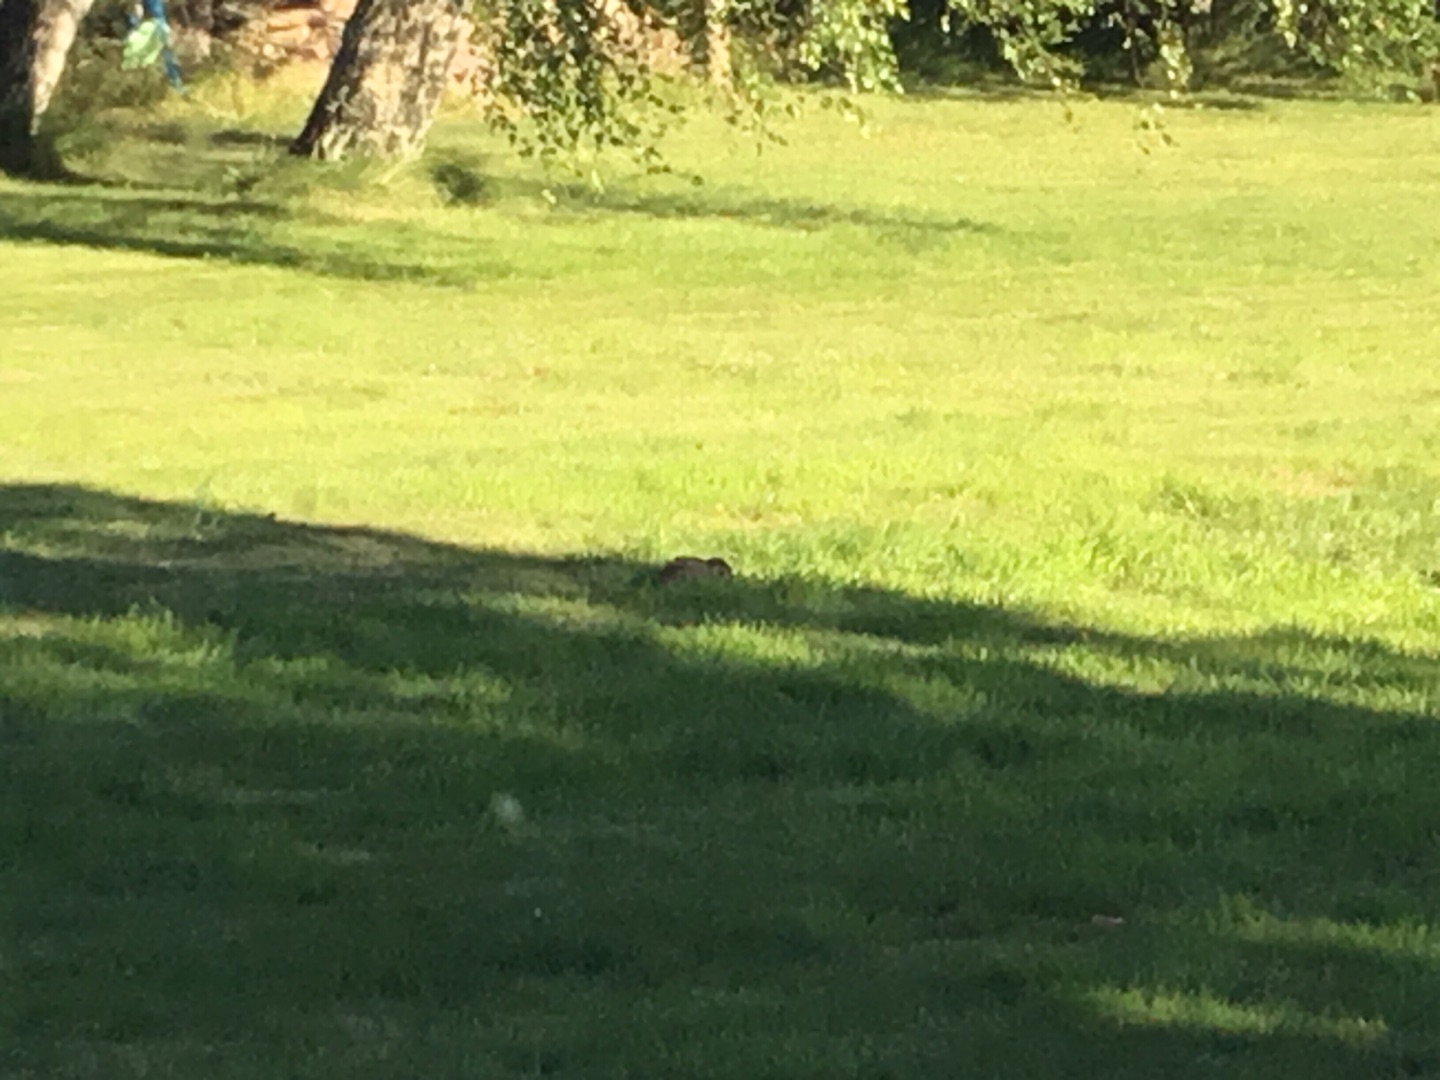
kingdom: Animalia
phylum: Chordata
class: Mammalia
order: Lagomorpha
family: Leporidae
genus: Lepus
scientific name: Lepus europaeus
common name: Hare
